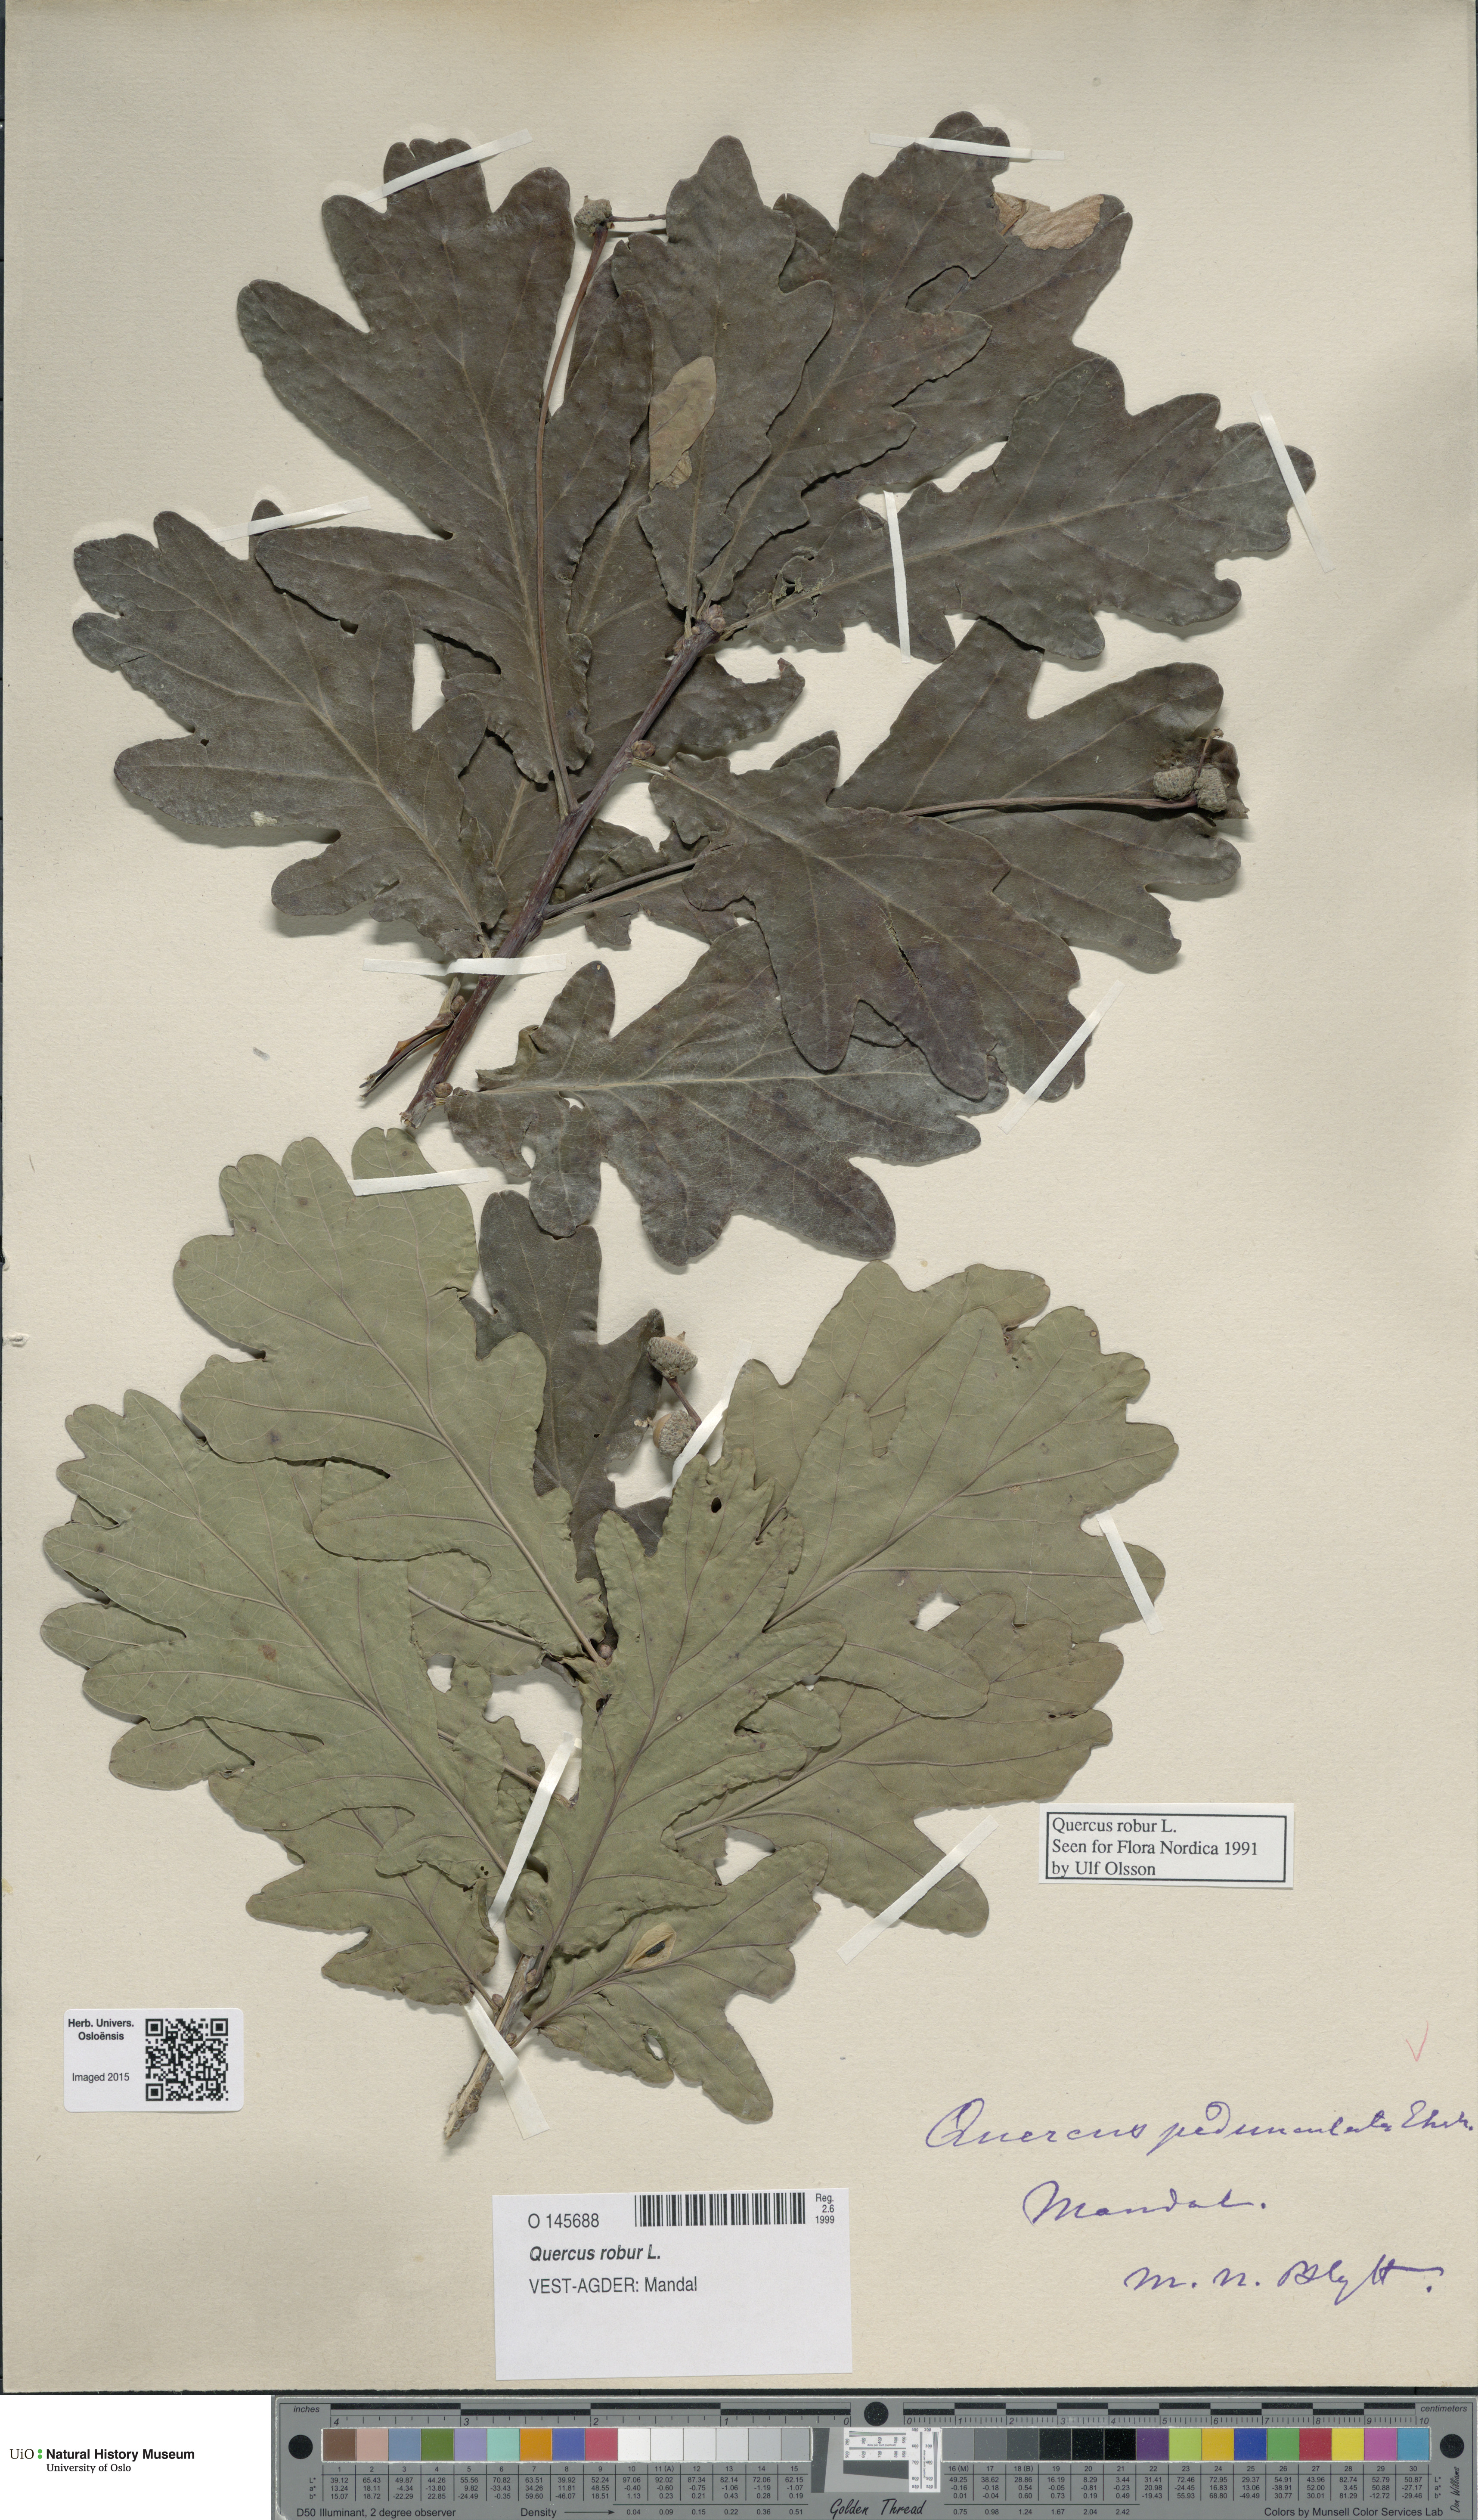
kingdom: Plantae
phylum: Tracheophyta
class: Magnoliopsida
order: Fagales
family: Fagaceae
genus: Quercus
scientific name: Quercus robur
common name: Pedunculate oak
